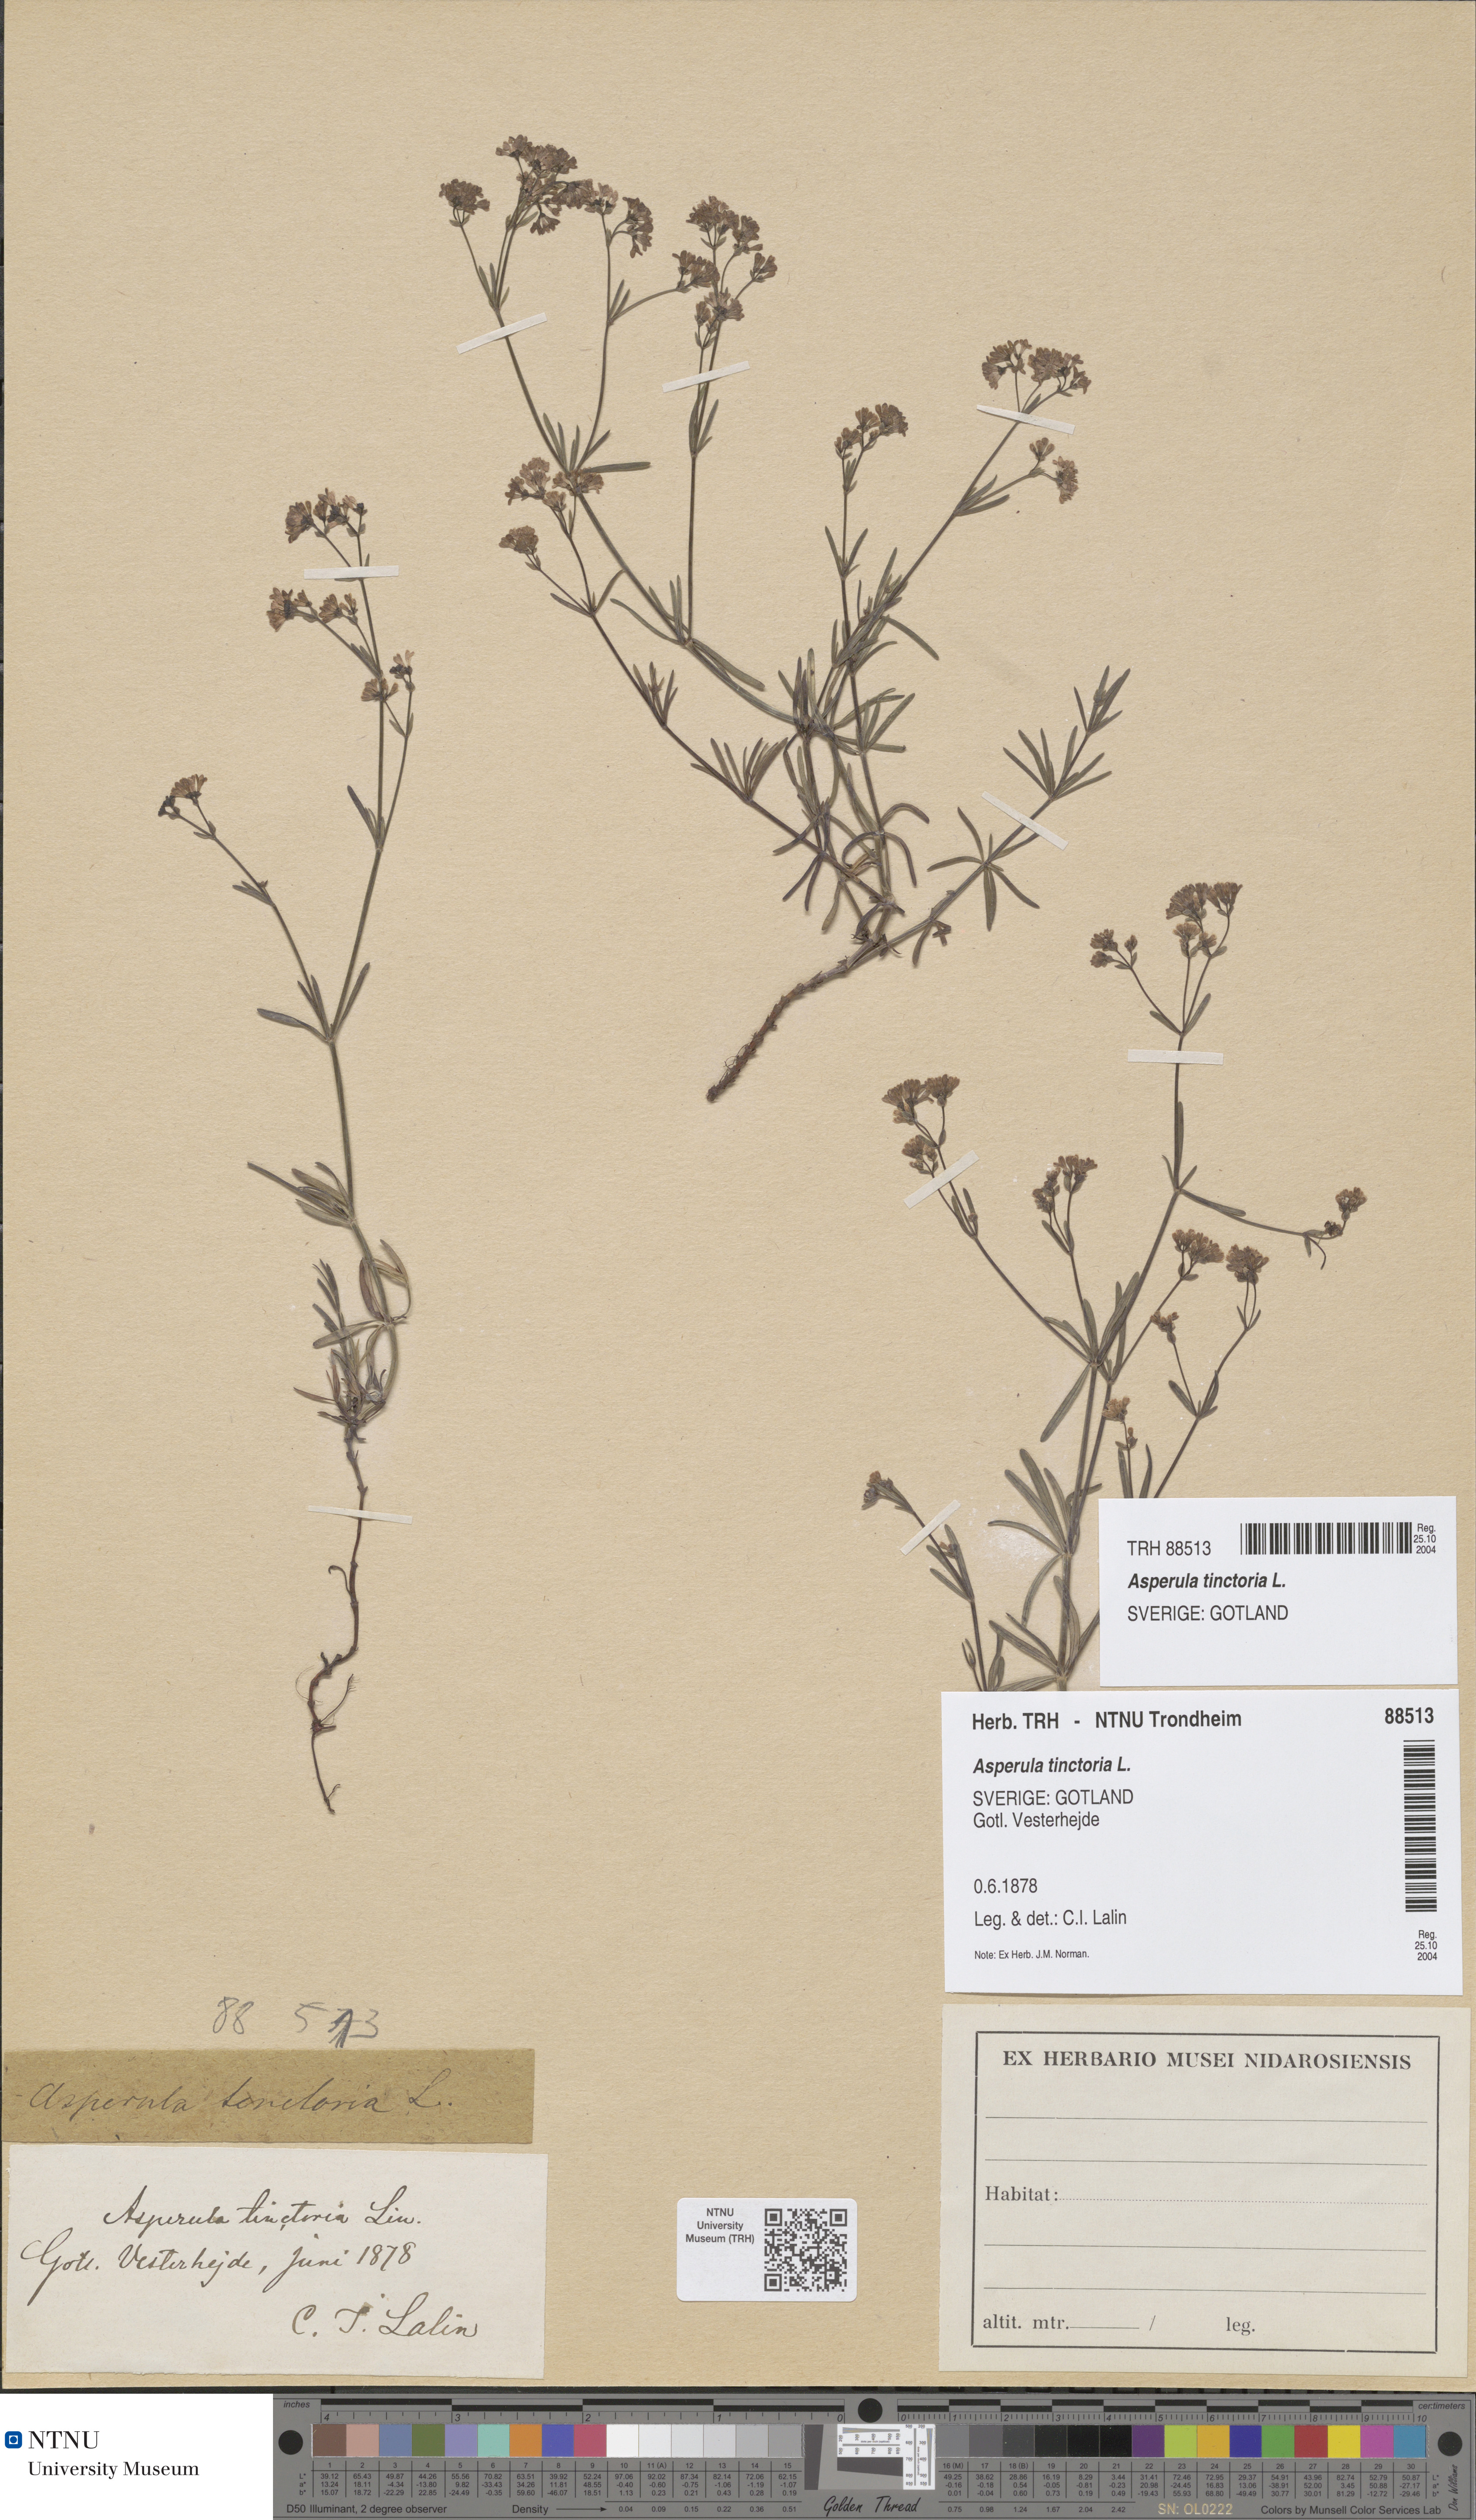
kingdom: Plantae
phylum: Tracheophyta
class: Magnoliopsida
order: Gentianales
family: Rubiaceae
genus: Asperula
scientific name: Asperula tinctoria
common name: Dyer's woodruff
